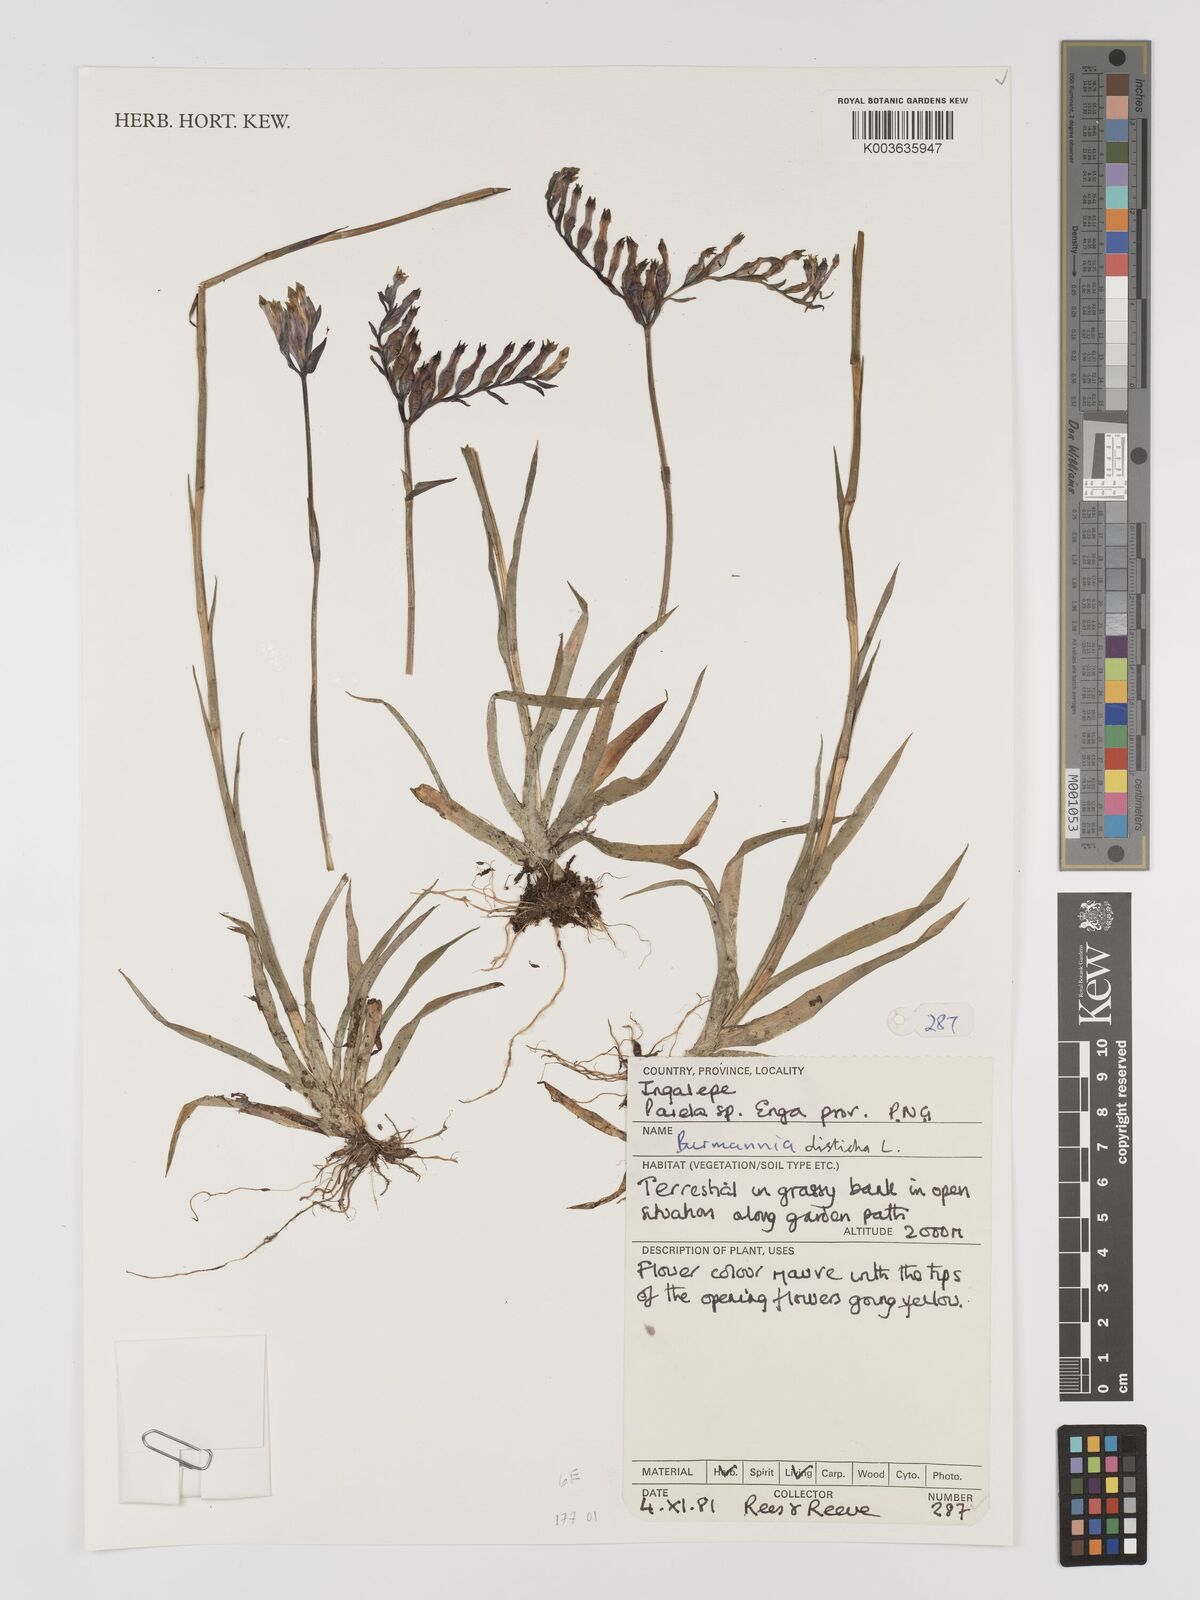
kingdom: Plantae
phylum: Tracheophyta
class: Liliopsida
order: Dioscoreales
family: Burmanniaceae
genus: Burmannia
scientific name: Burmannia disticha
